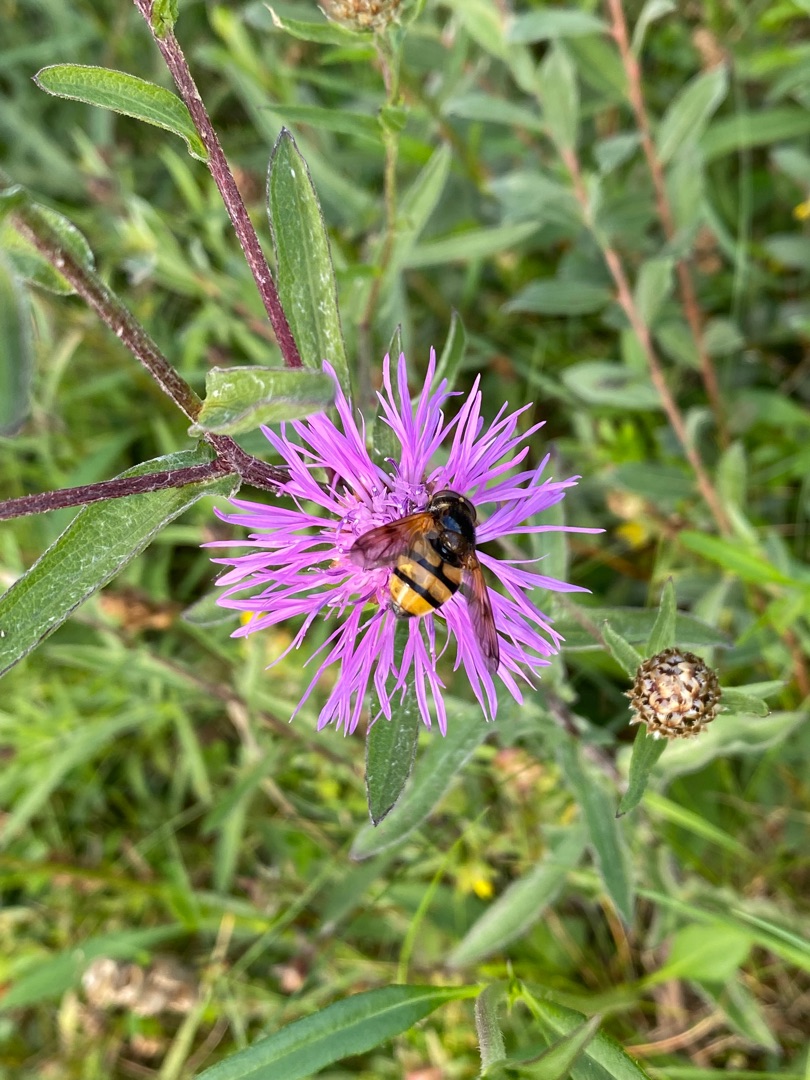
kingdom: Animalia
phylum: Arthropoda
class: Insecta
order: Diptera
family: Syrphidae
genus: Volucella
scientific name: Volucella inanis
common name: Gul humlesvirreflue
